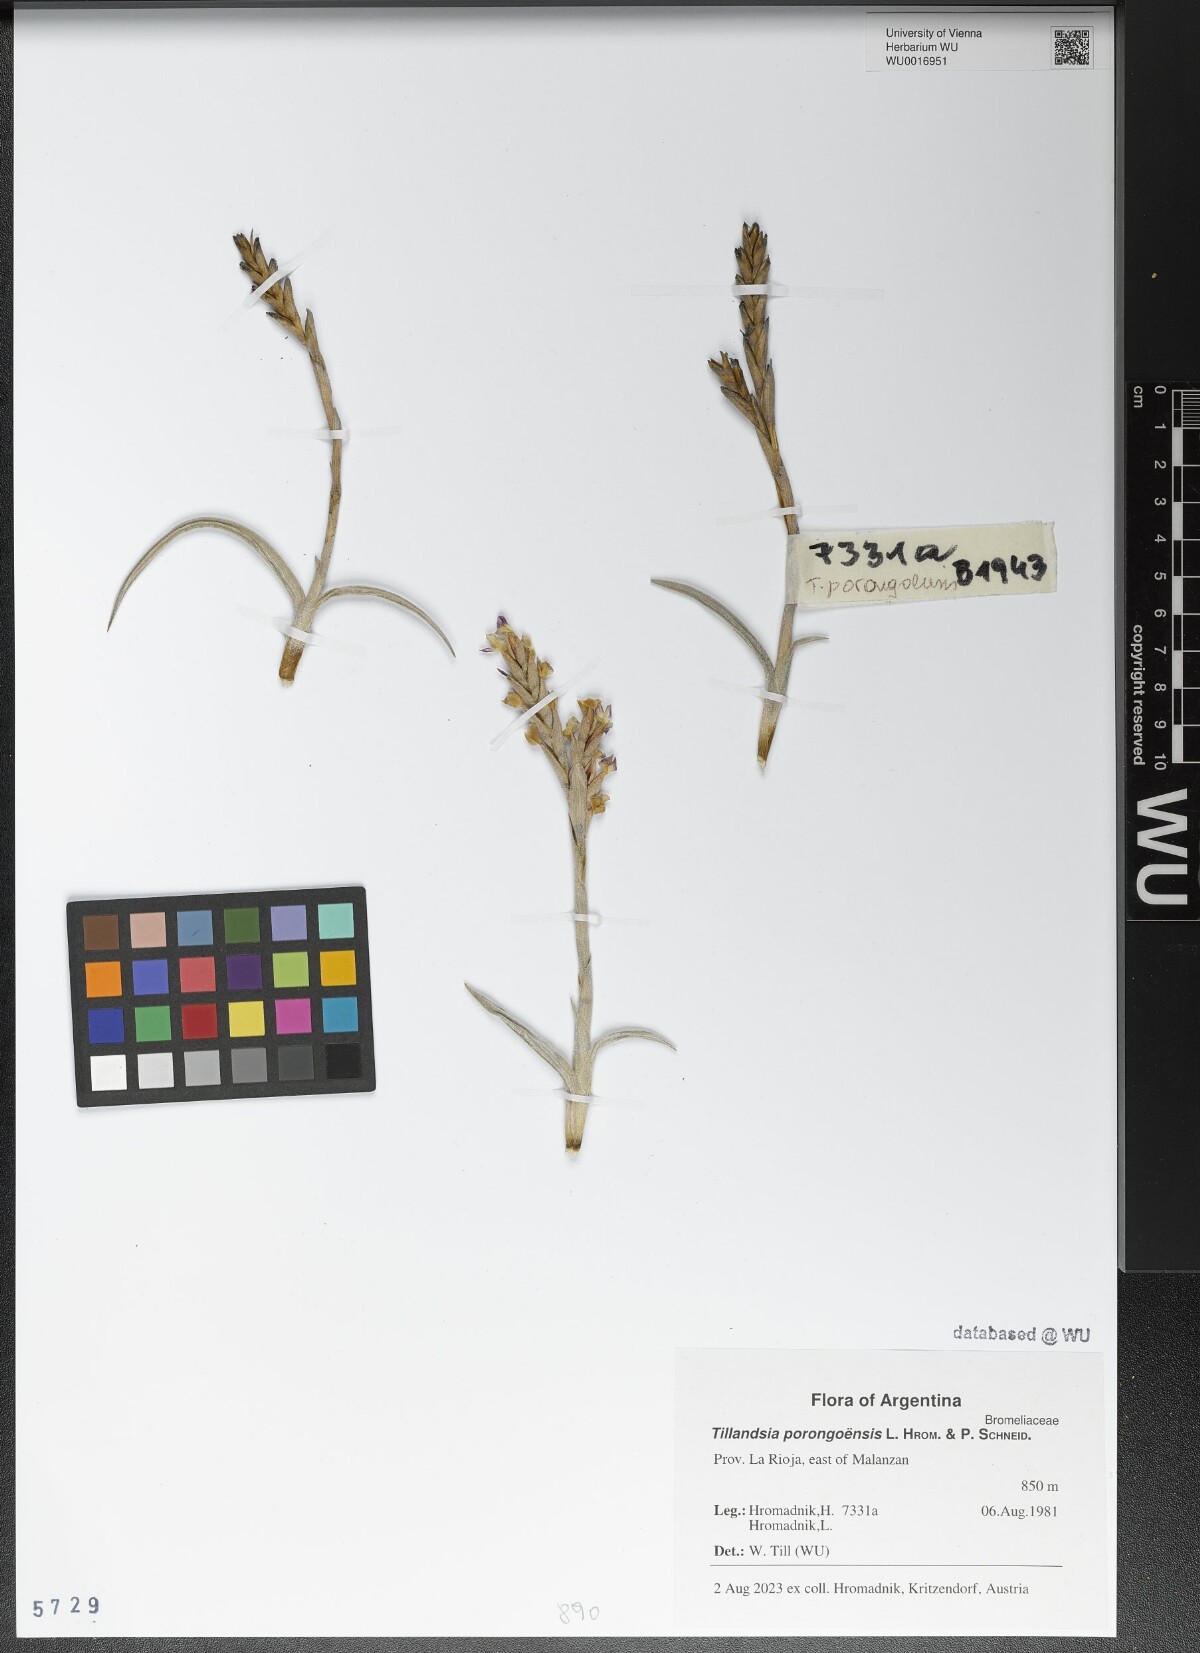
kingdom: Plantae
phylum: Tracheophyta
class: Liliopsida
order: Poales
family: Bromeliaceae
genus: Tillandsia
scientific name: Tillandsia porongoensis
